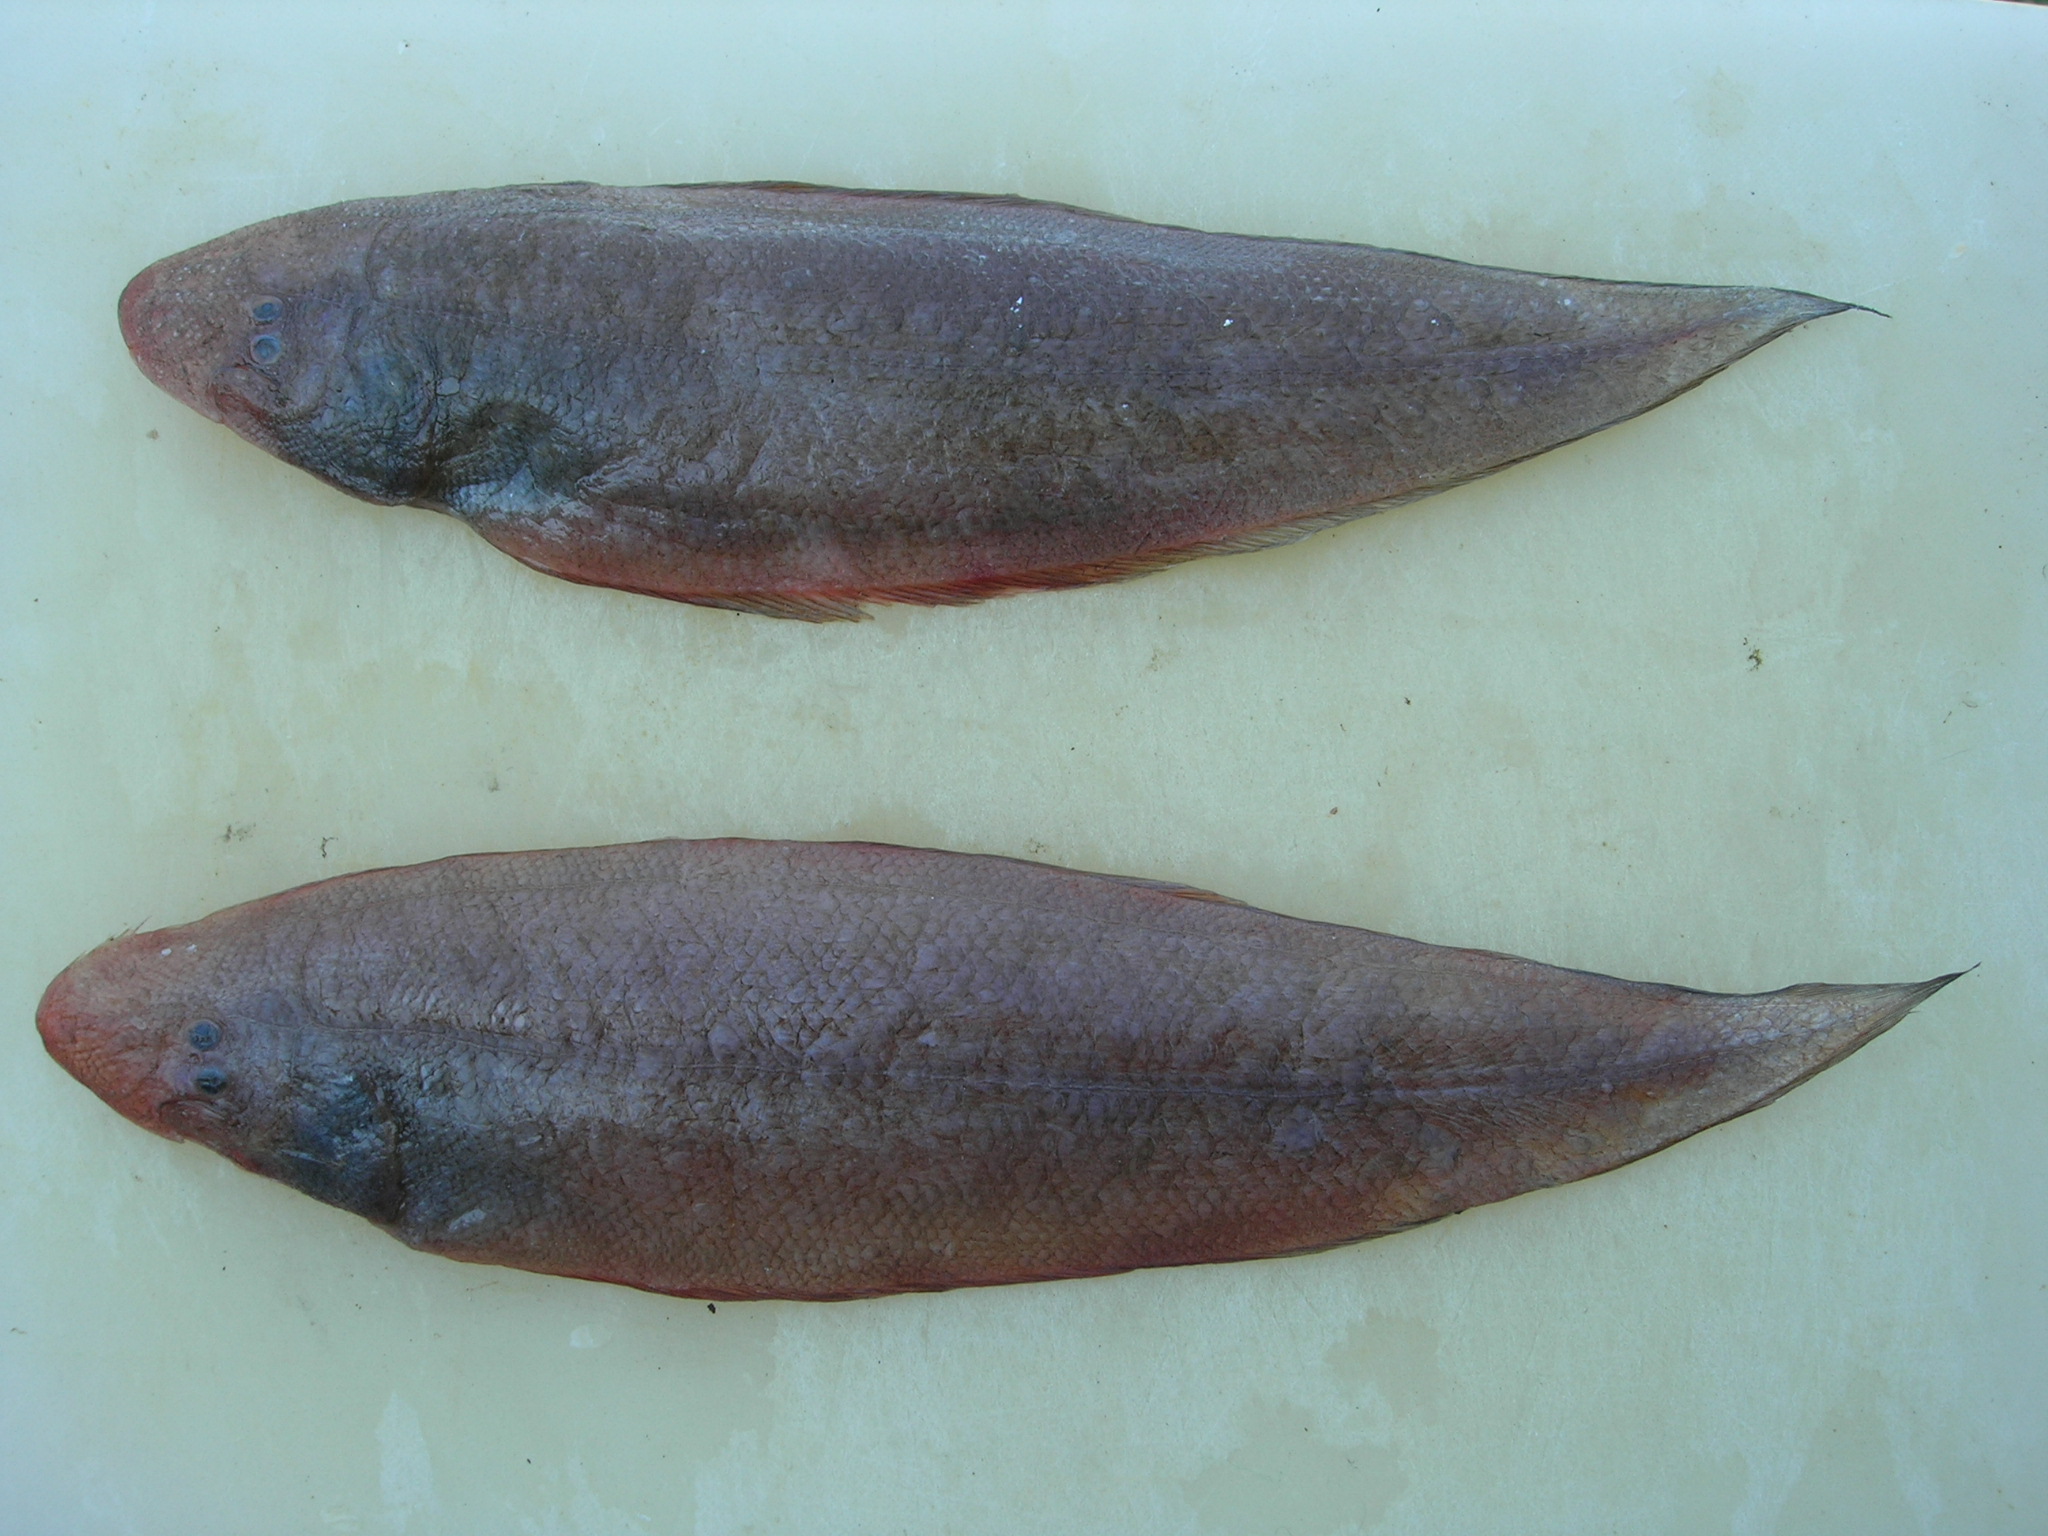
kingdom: Animalia
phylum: Chordata
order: Pleuronectiformes
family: Cynoglossidae
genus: Cynoglossus
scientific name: Cynoglossus attenuatus
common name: Fourline toungefish
